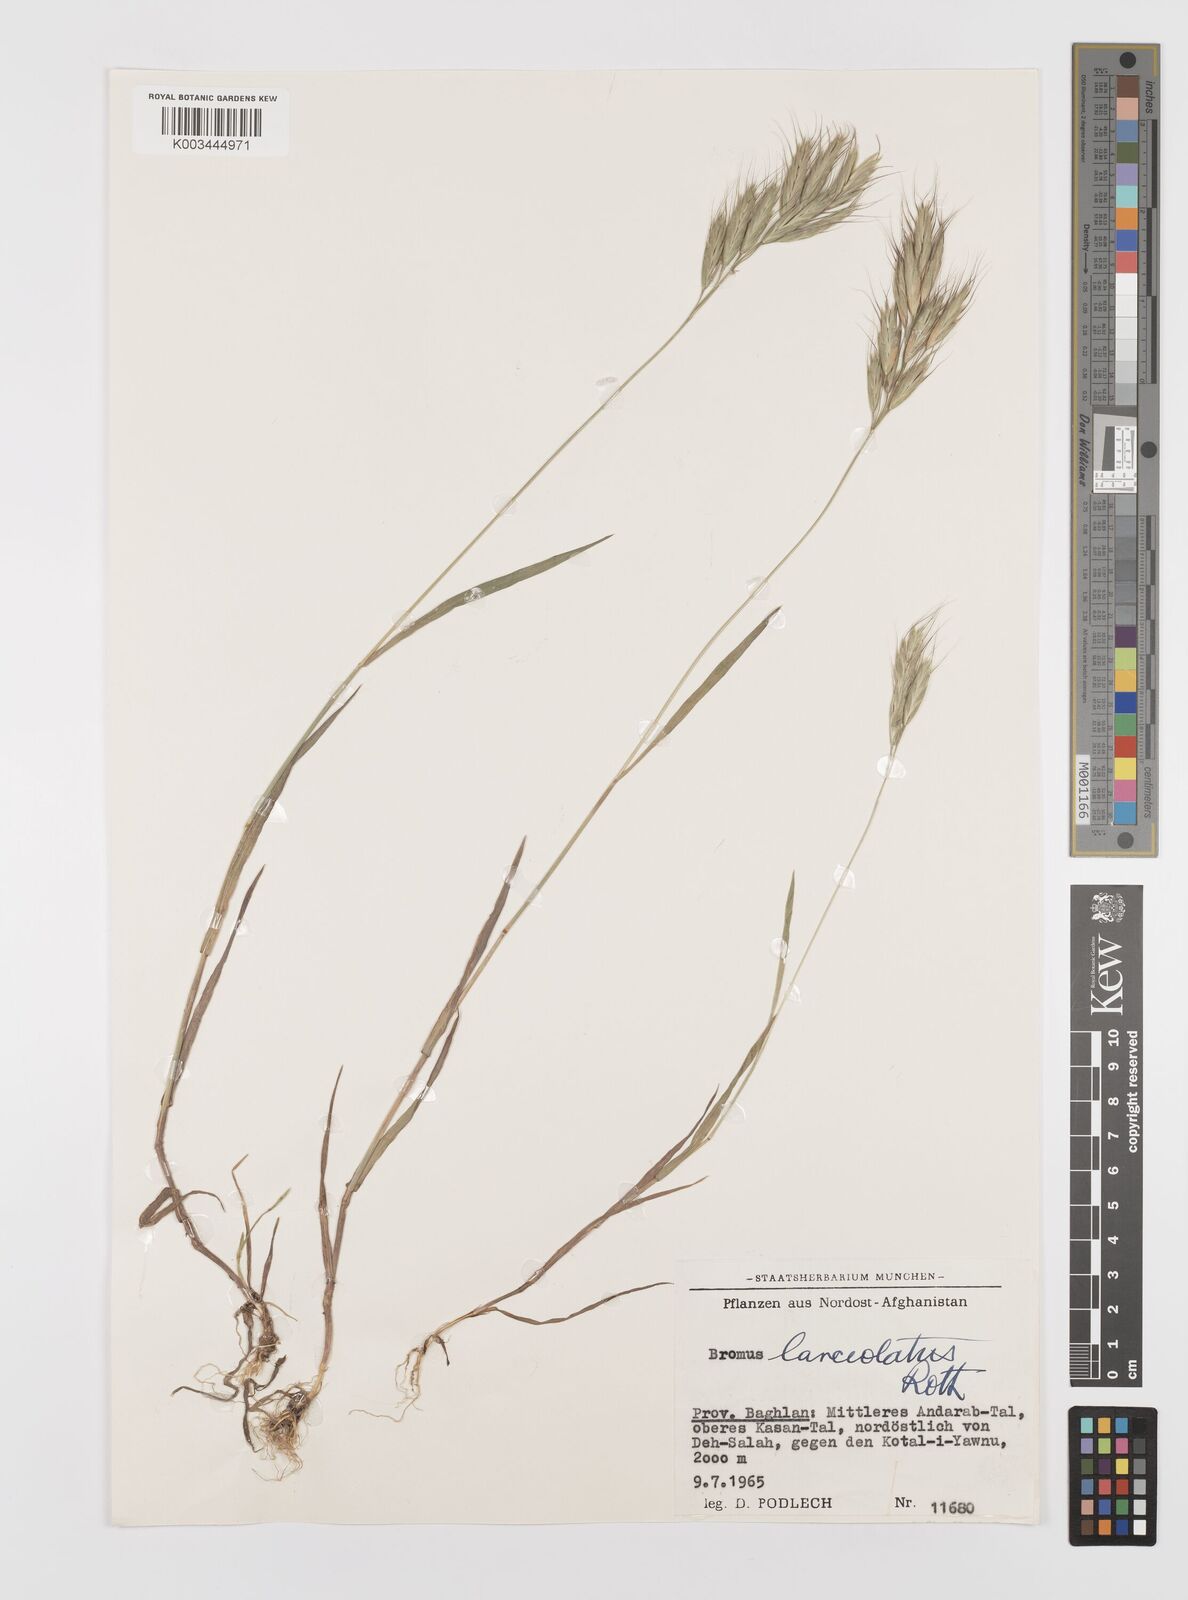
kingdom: Plantae
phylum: Tracheophyta
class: Liliopsida
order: Poales
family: Poaceae
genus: Bromus
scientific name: Bromus lanceolatus
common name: Mediterranean brome
